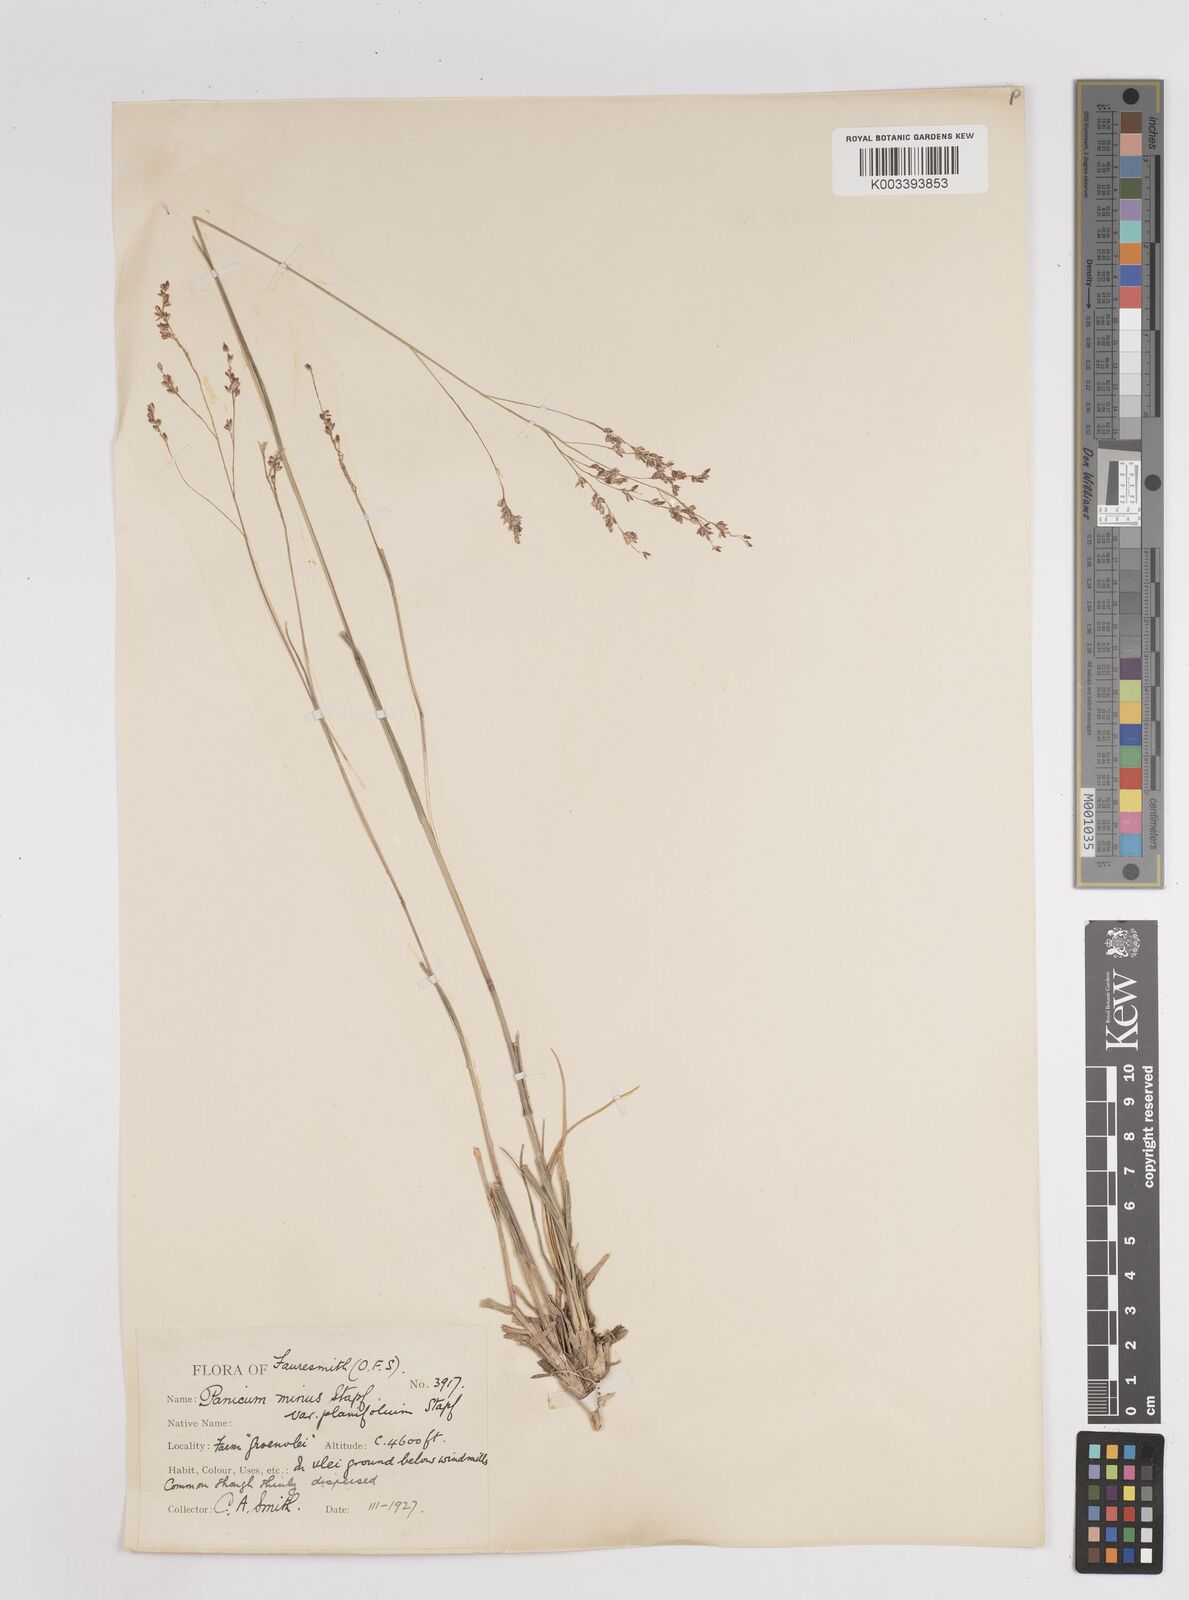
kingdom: Plantae
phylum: Tracheophyta
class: Liliopsida
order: Poales
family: Poaceae
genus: Panicum
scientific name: Panicum stapfianum
